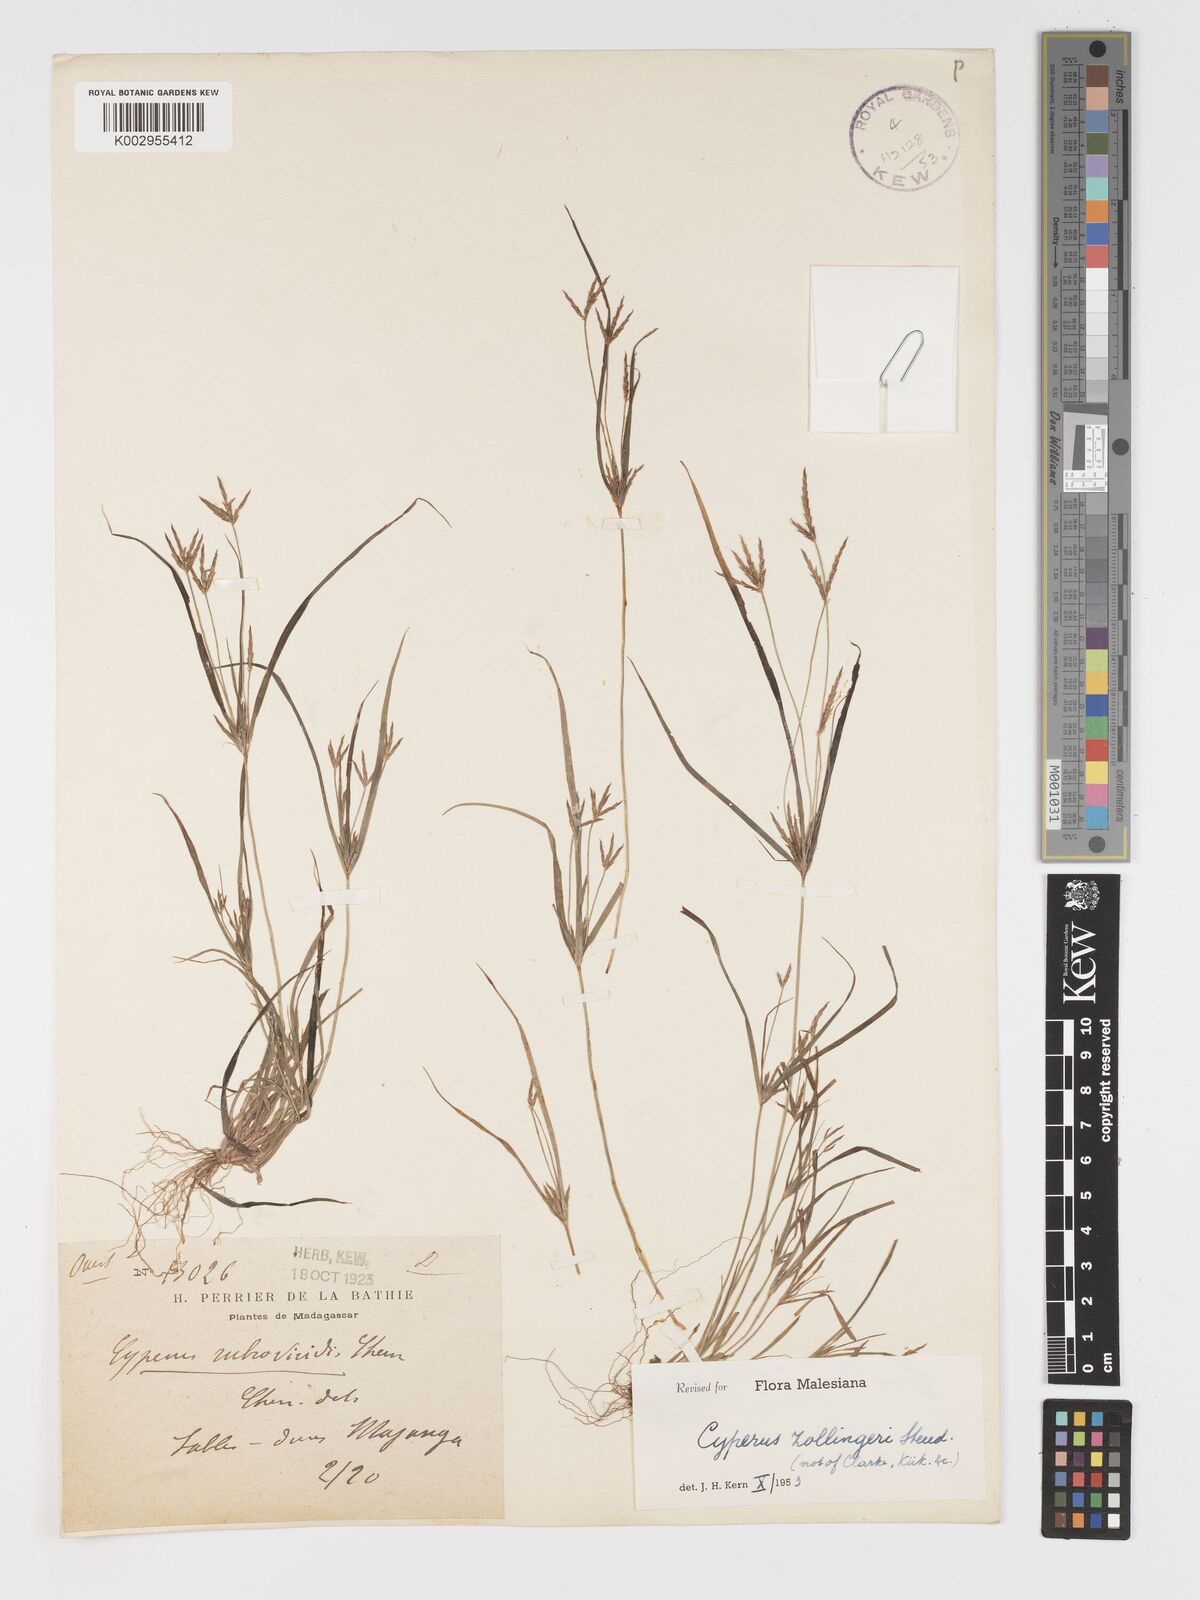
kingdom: Plantae
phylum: Tracheophyta
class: Liliopsida
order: Poales
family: Cyperaceae
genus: Cyperus
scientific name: Cyperus zollingeri
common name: Roadside flatsedge
